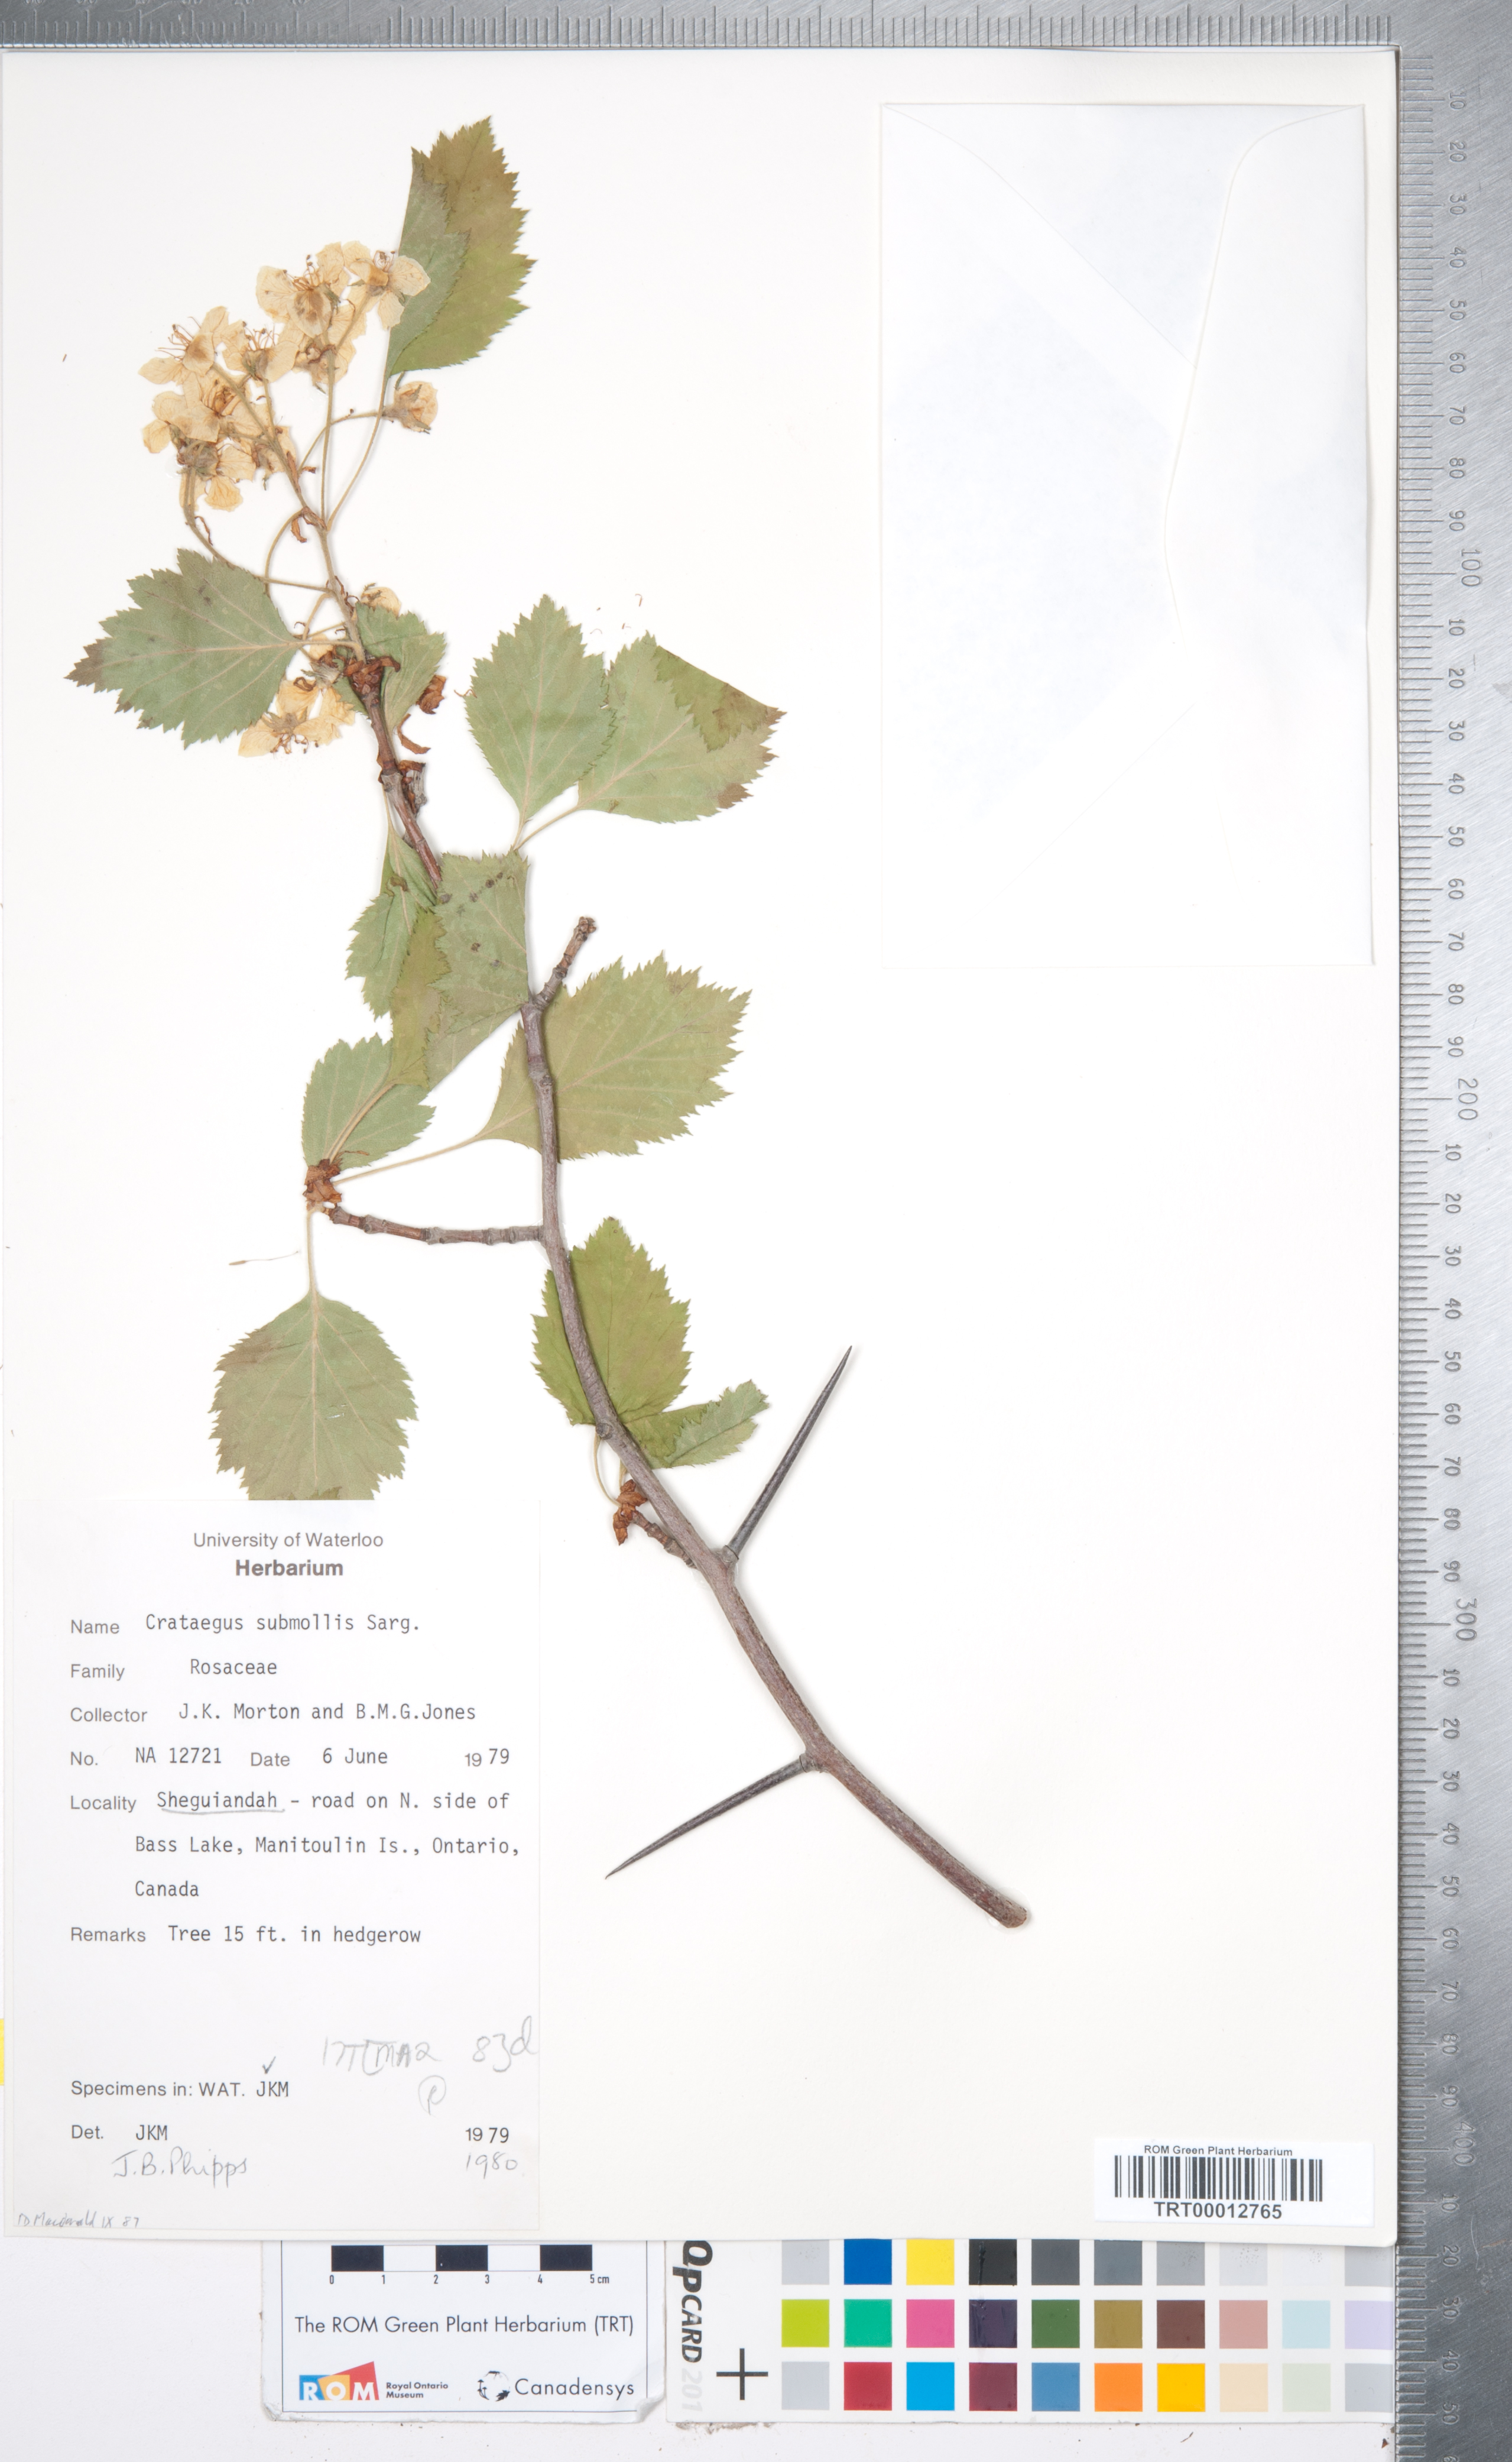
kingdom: Plantae
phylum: Tracheophyta
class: Magnoliopsida
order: Rosales
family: Rosaceae
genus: Crataegus
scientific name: Crataegus submollis
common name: Hairy cockspurthorn
